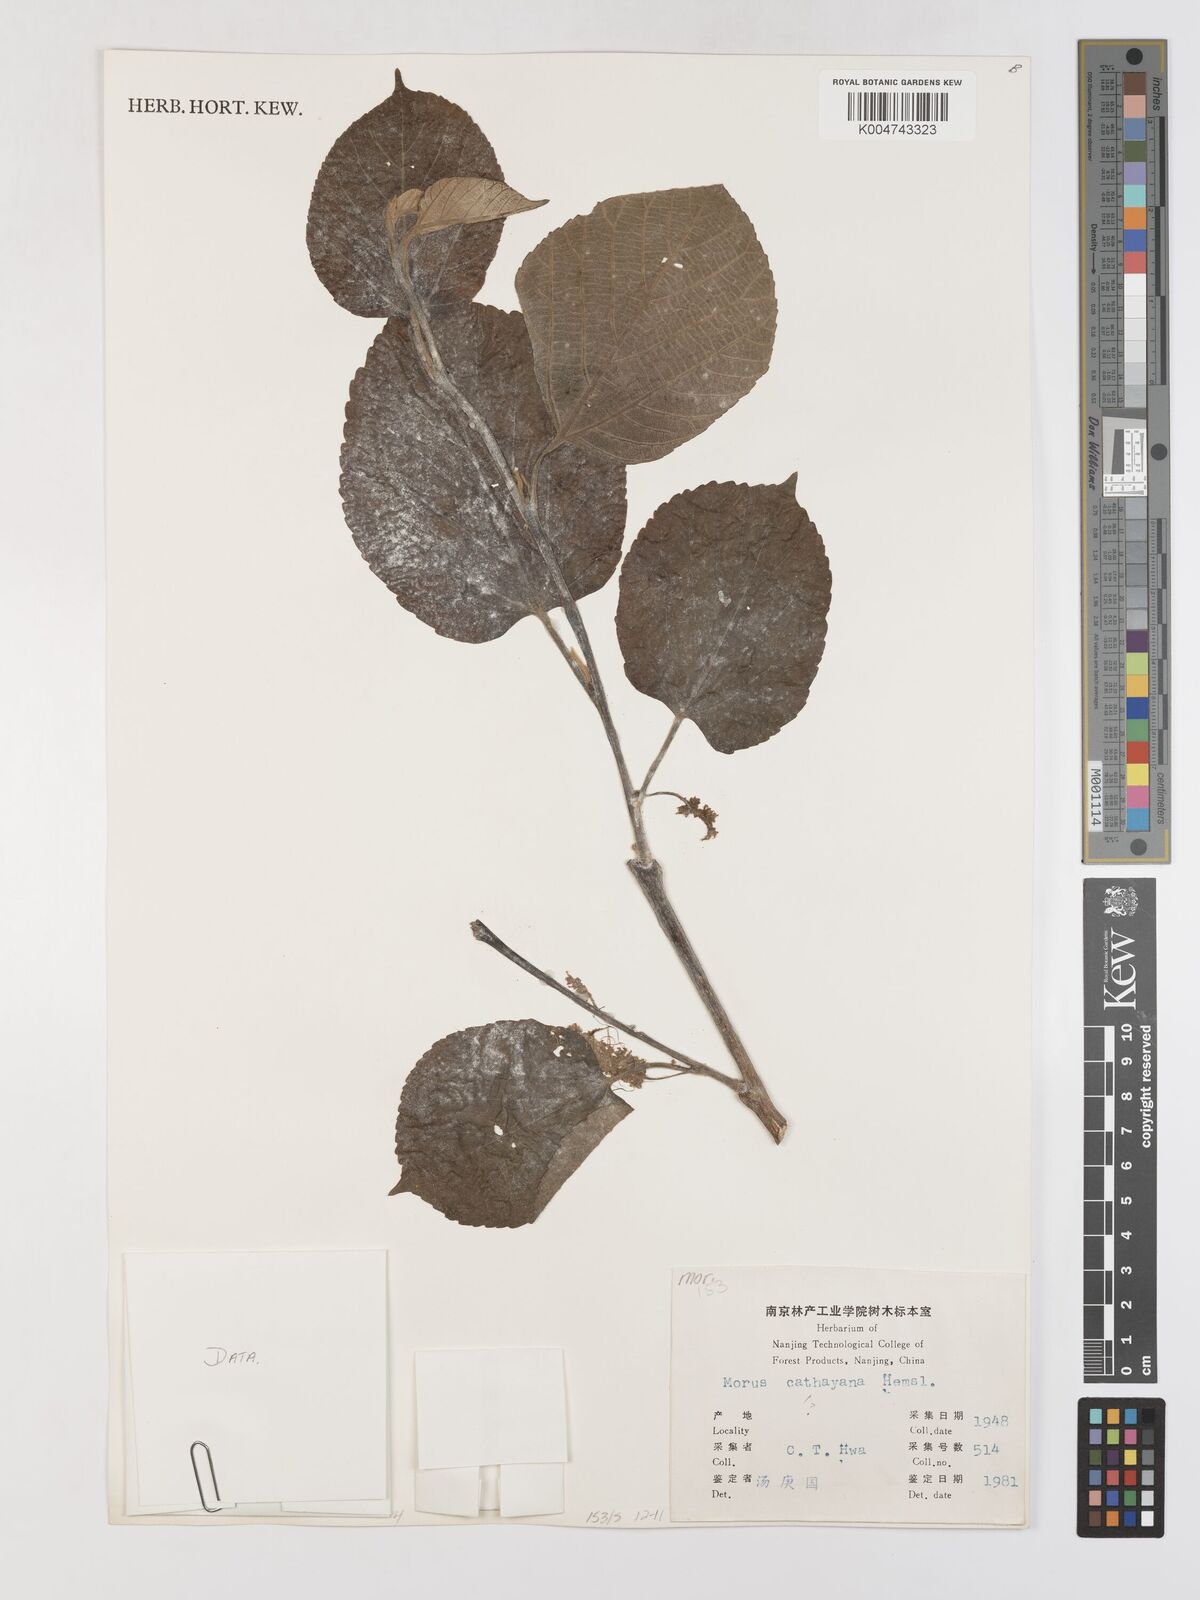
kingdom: Plantae
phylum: Tracheophyta
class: Magnoliopsida
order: Rosales
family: Moraceae
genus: Morus
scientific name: Morus cathayana
